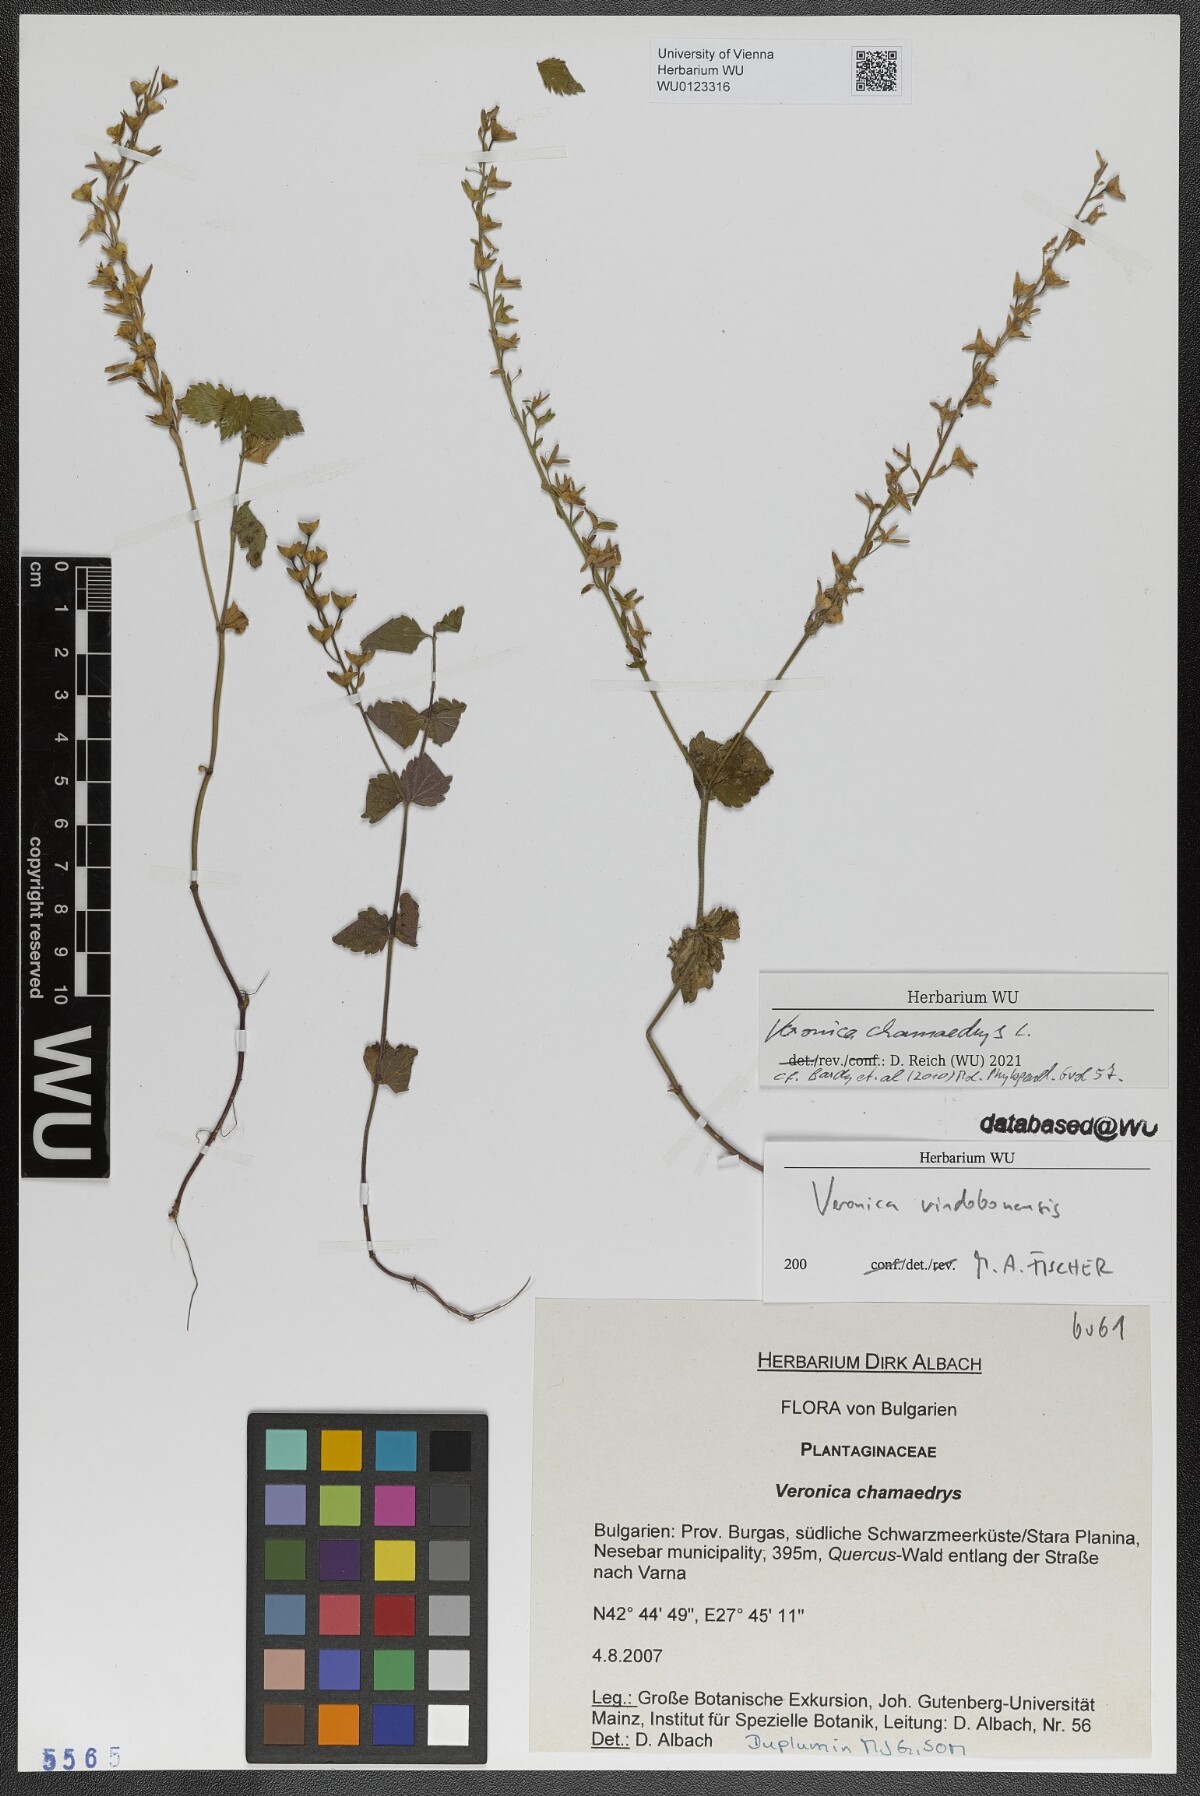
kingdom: Plantae
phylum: Tracheophyta
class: Magnoliopsida
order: Lamiales
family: Plantaginaceae
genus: Veronica
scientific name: Veronica chamaedrys
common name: Germander speedwell
